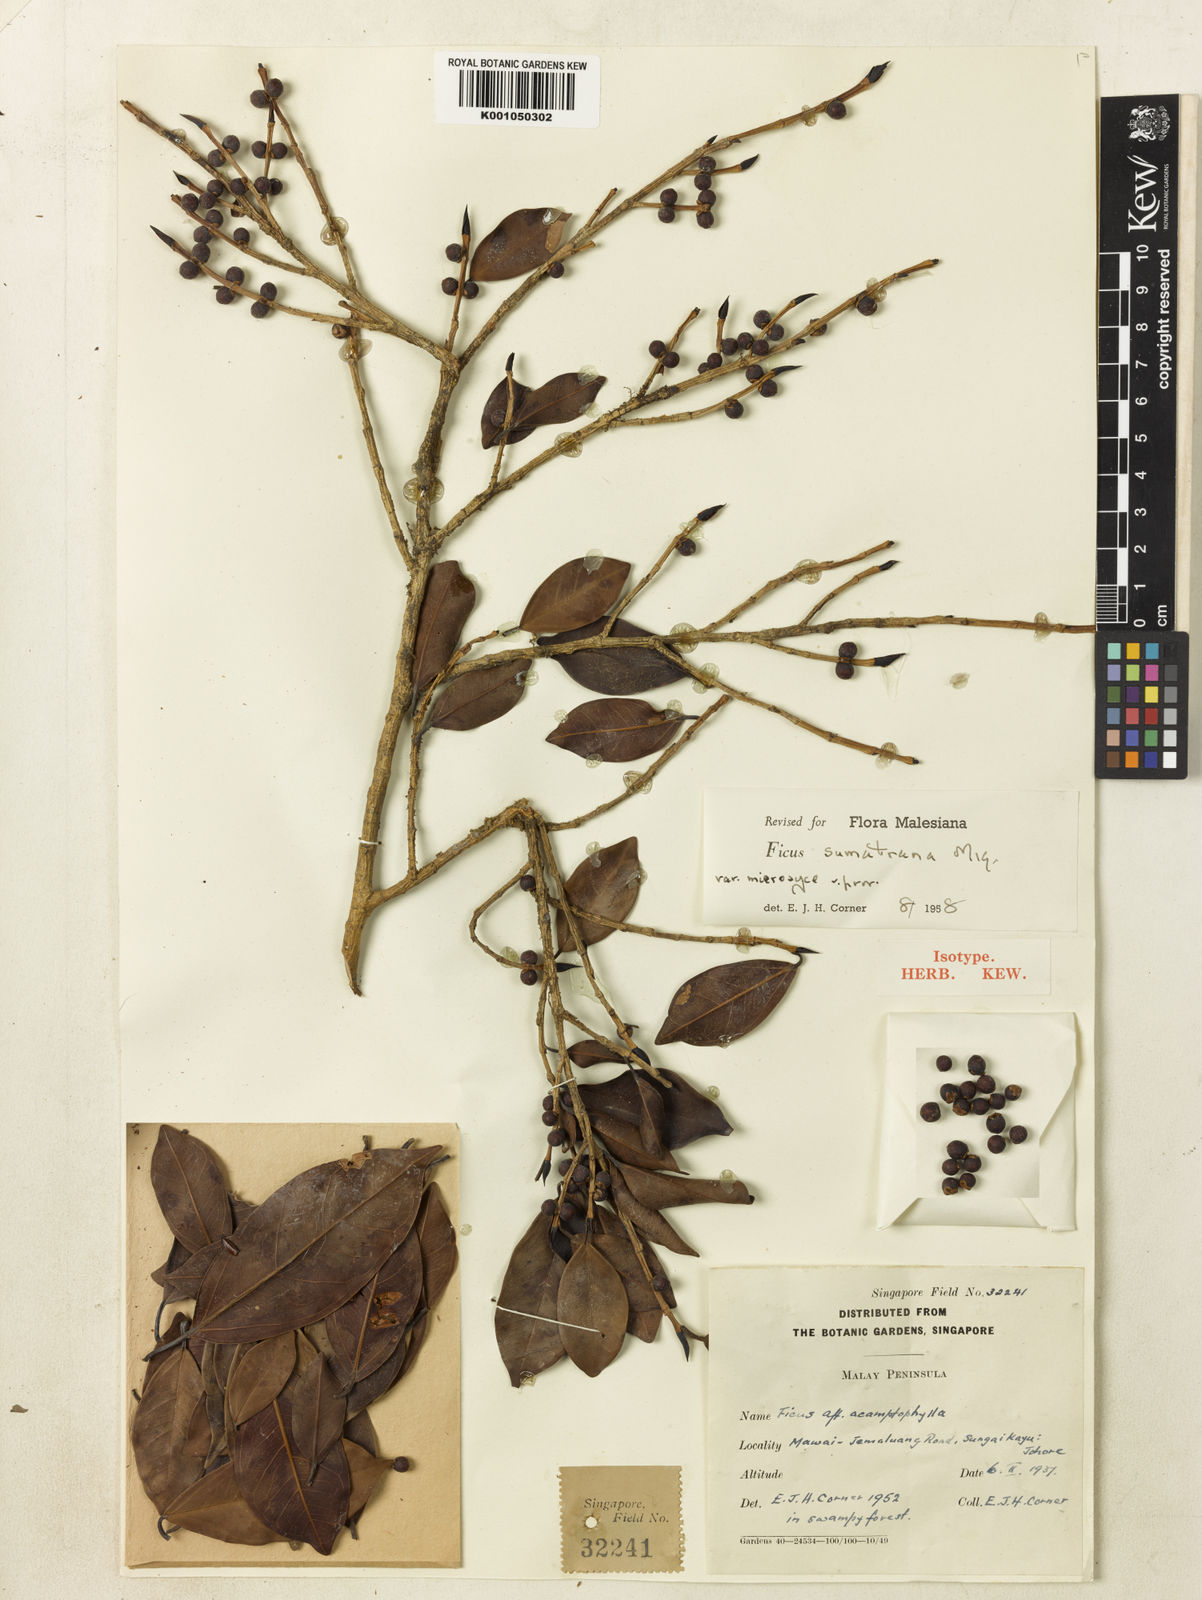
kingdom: Plantae
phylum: Tracheophyta
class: Magnoliopsida
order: Rosales
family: Moraceae
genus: Ficus
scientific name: Ficus sumatrana
